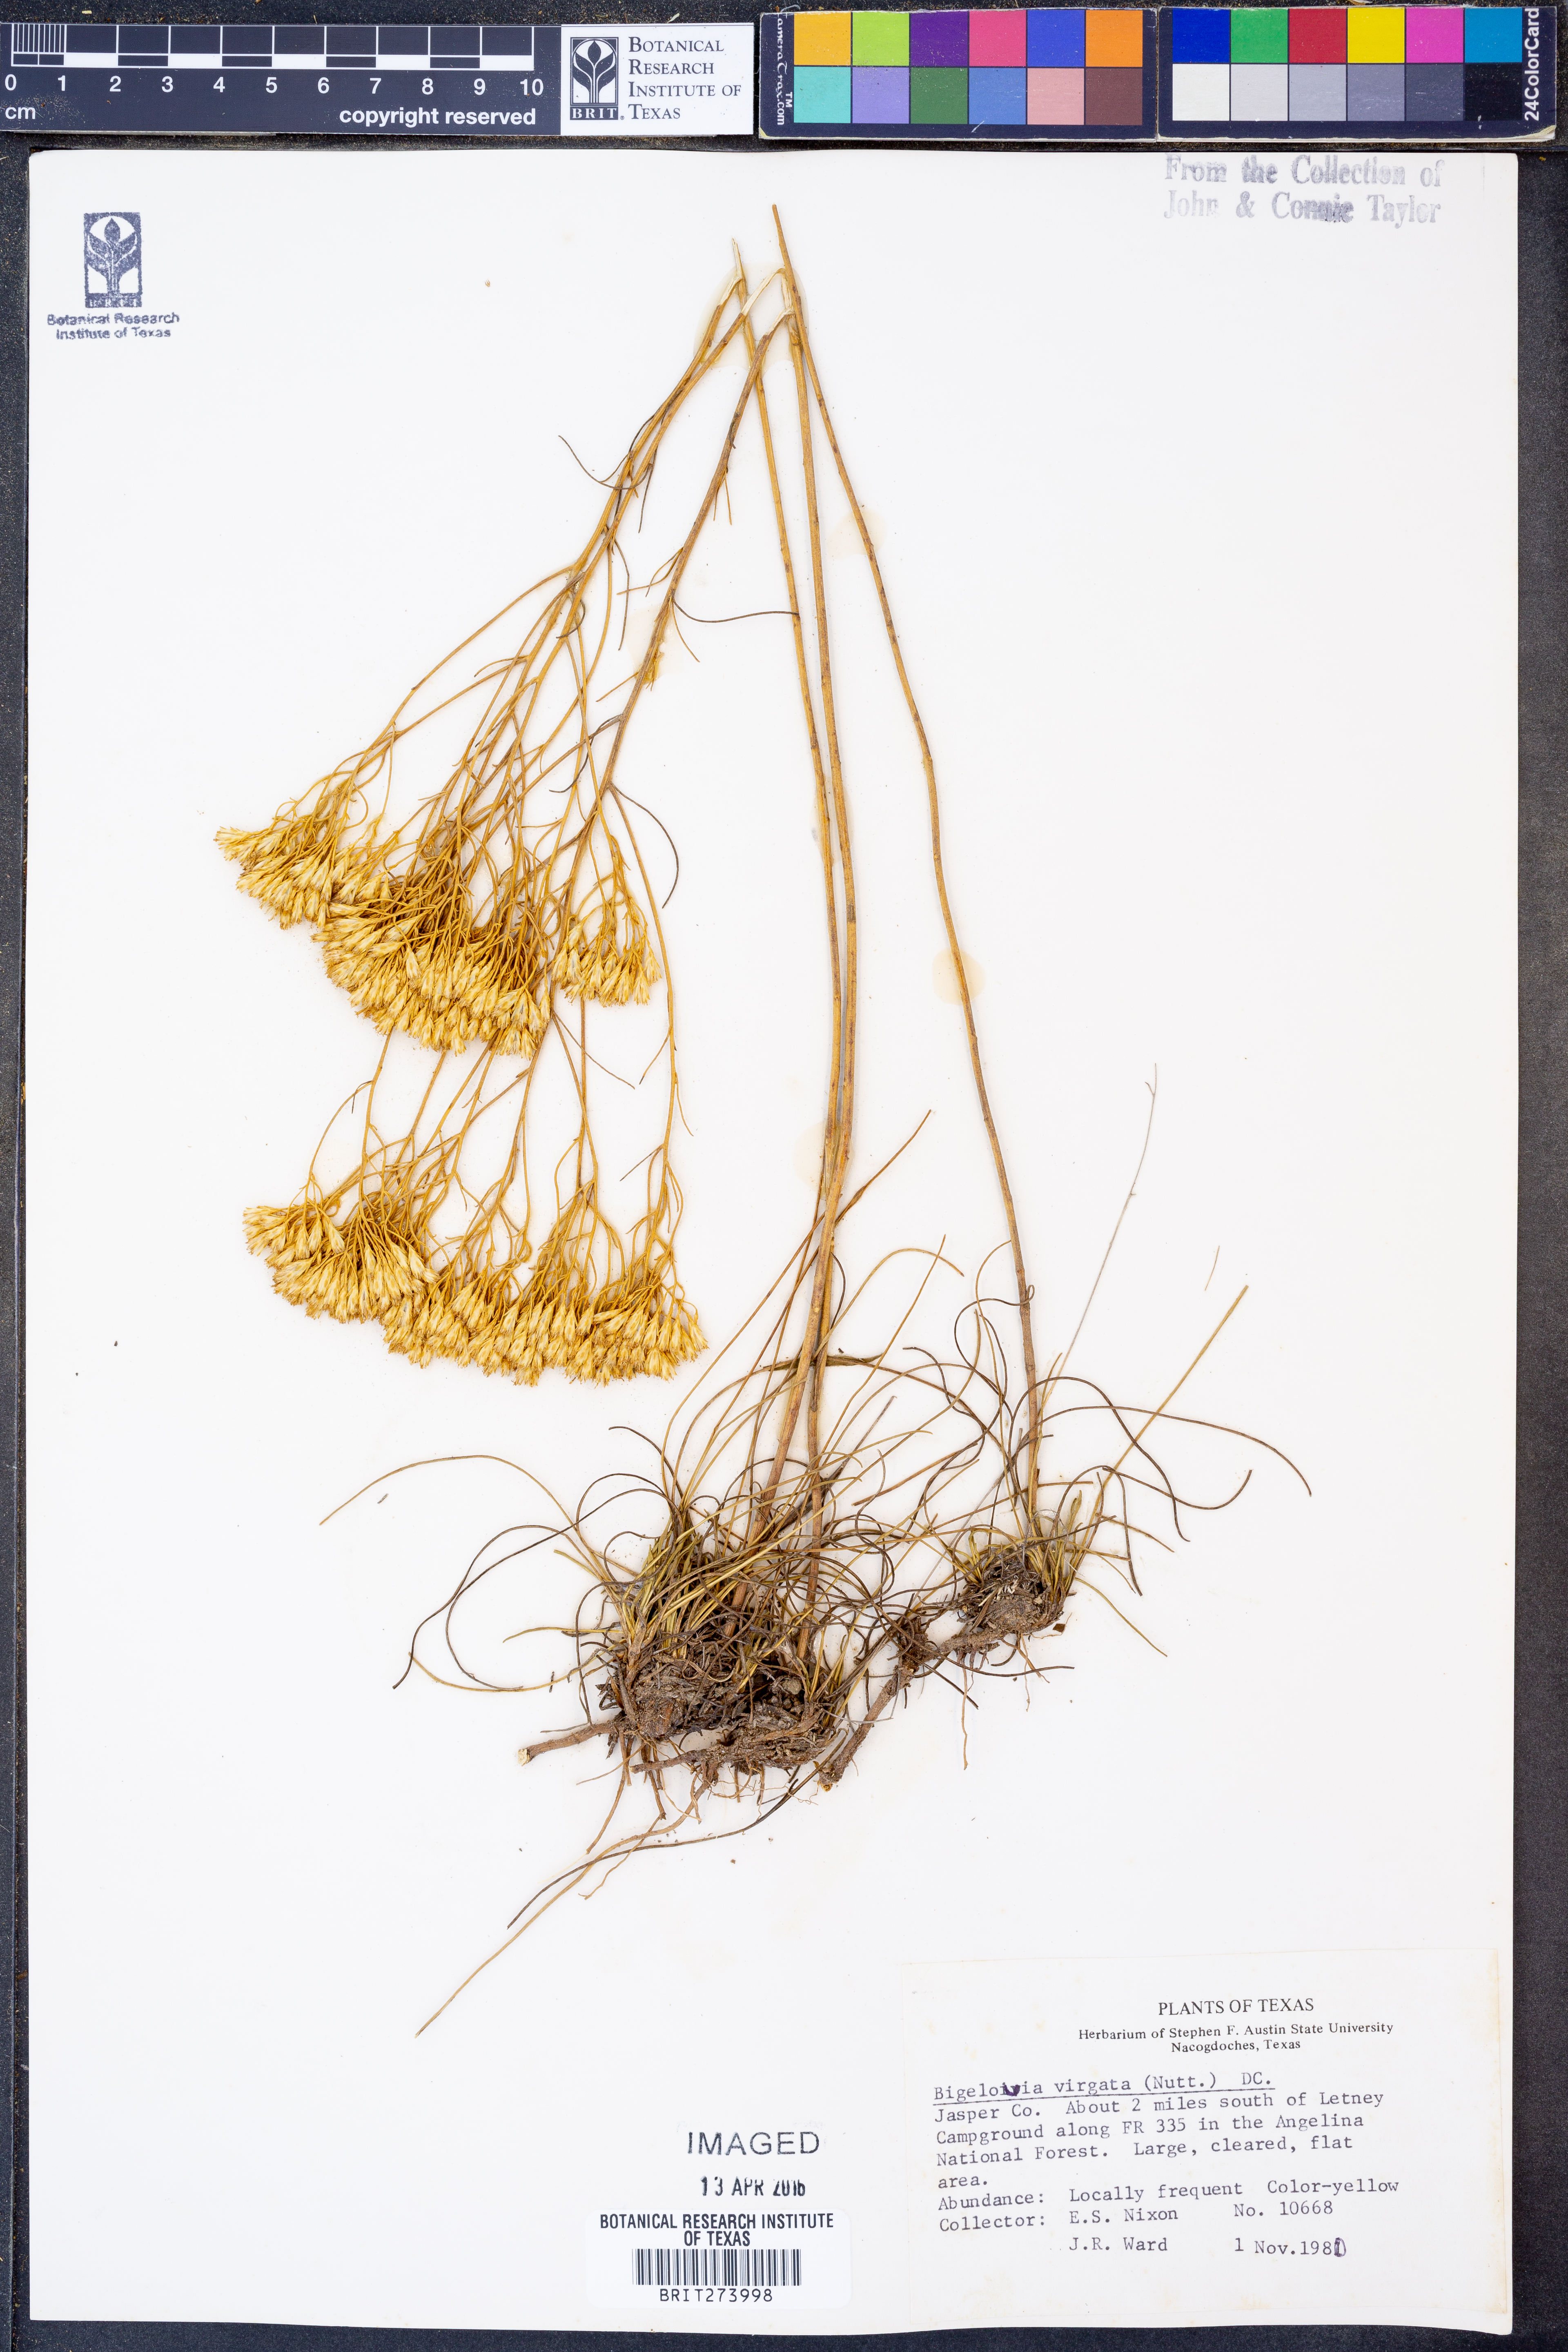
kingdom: Plantae
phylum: Tracheophyta
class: Magnoliopsida
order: Asterales
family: Asteraceae
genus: Bigelowia
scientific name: Bigelowia nudata
